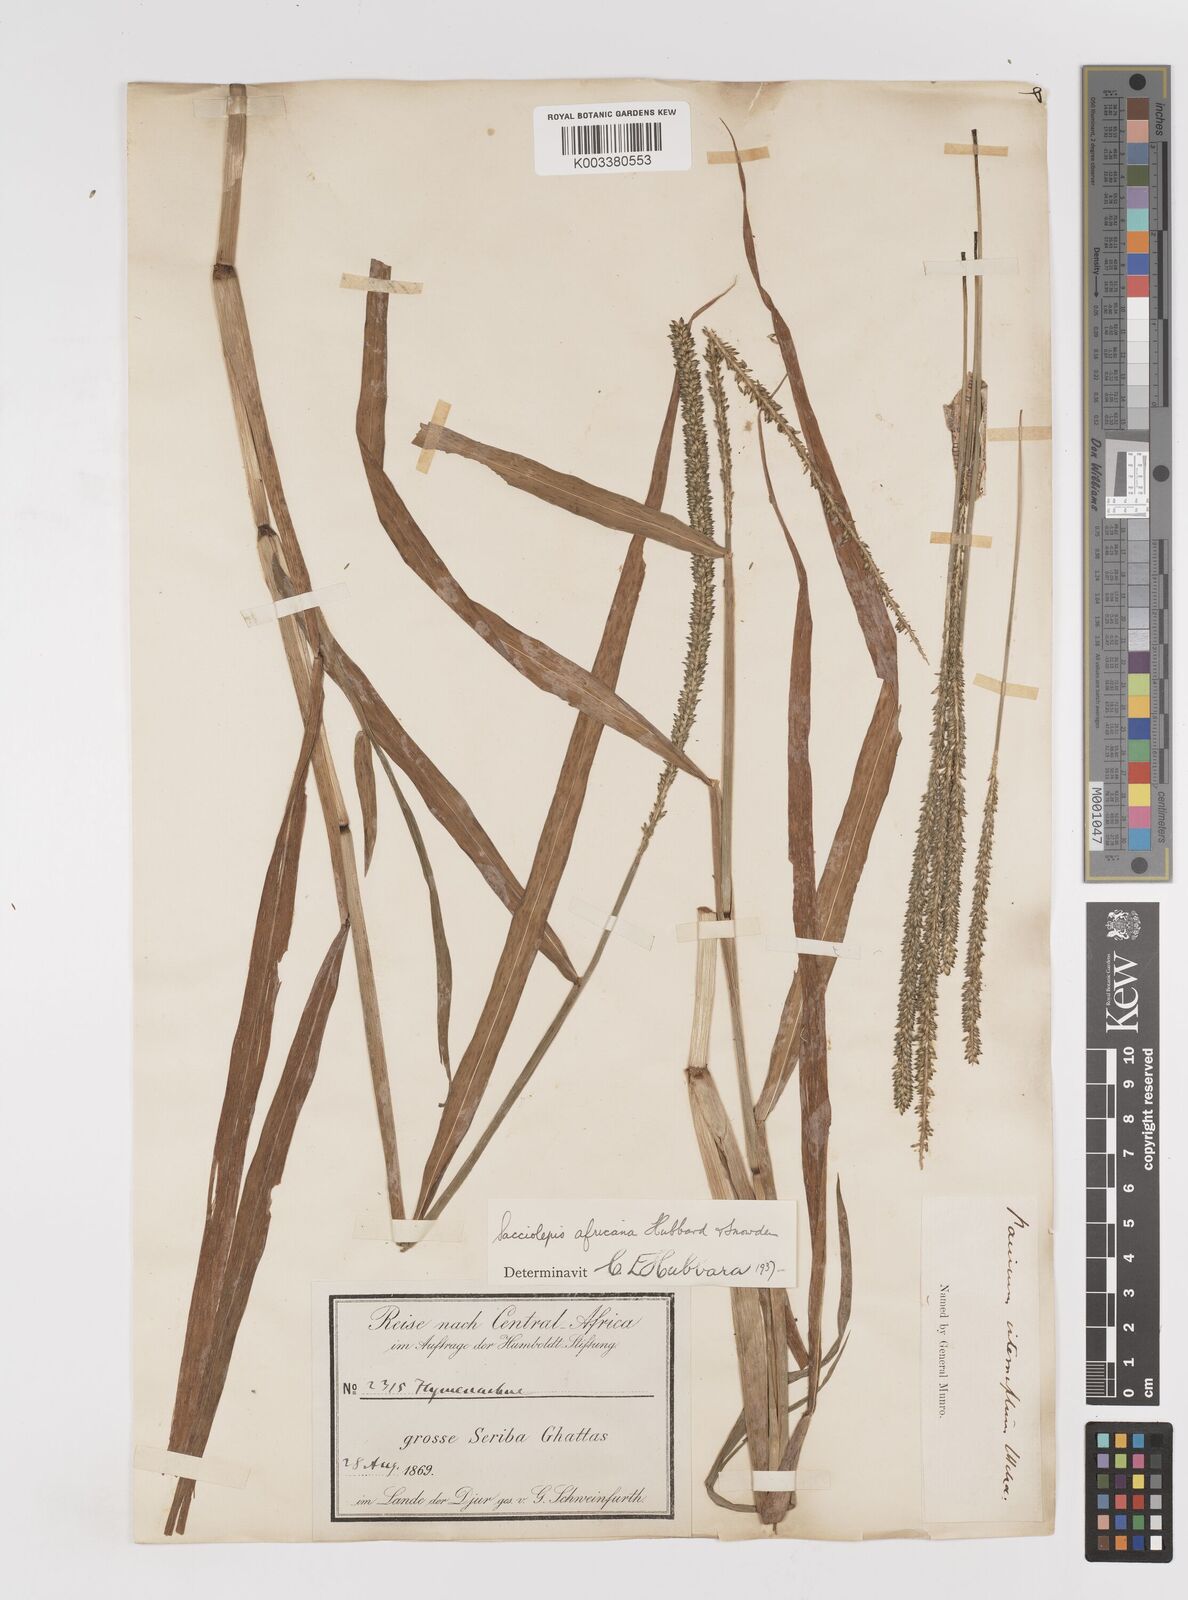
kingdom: Plantae
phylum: Tracheophyta
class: Liliopsida
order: Poales
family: Poaceae
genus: Sacciolepis
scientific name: Sacciolepis africana
